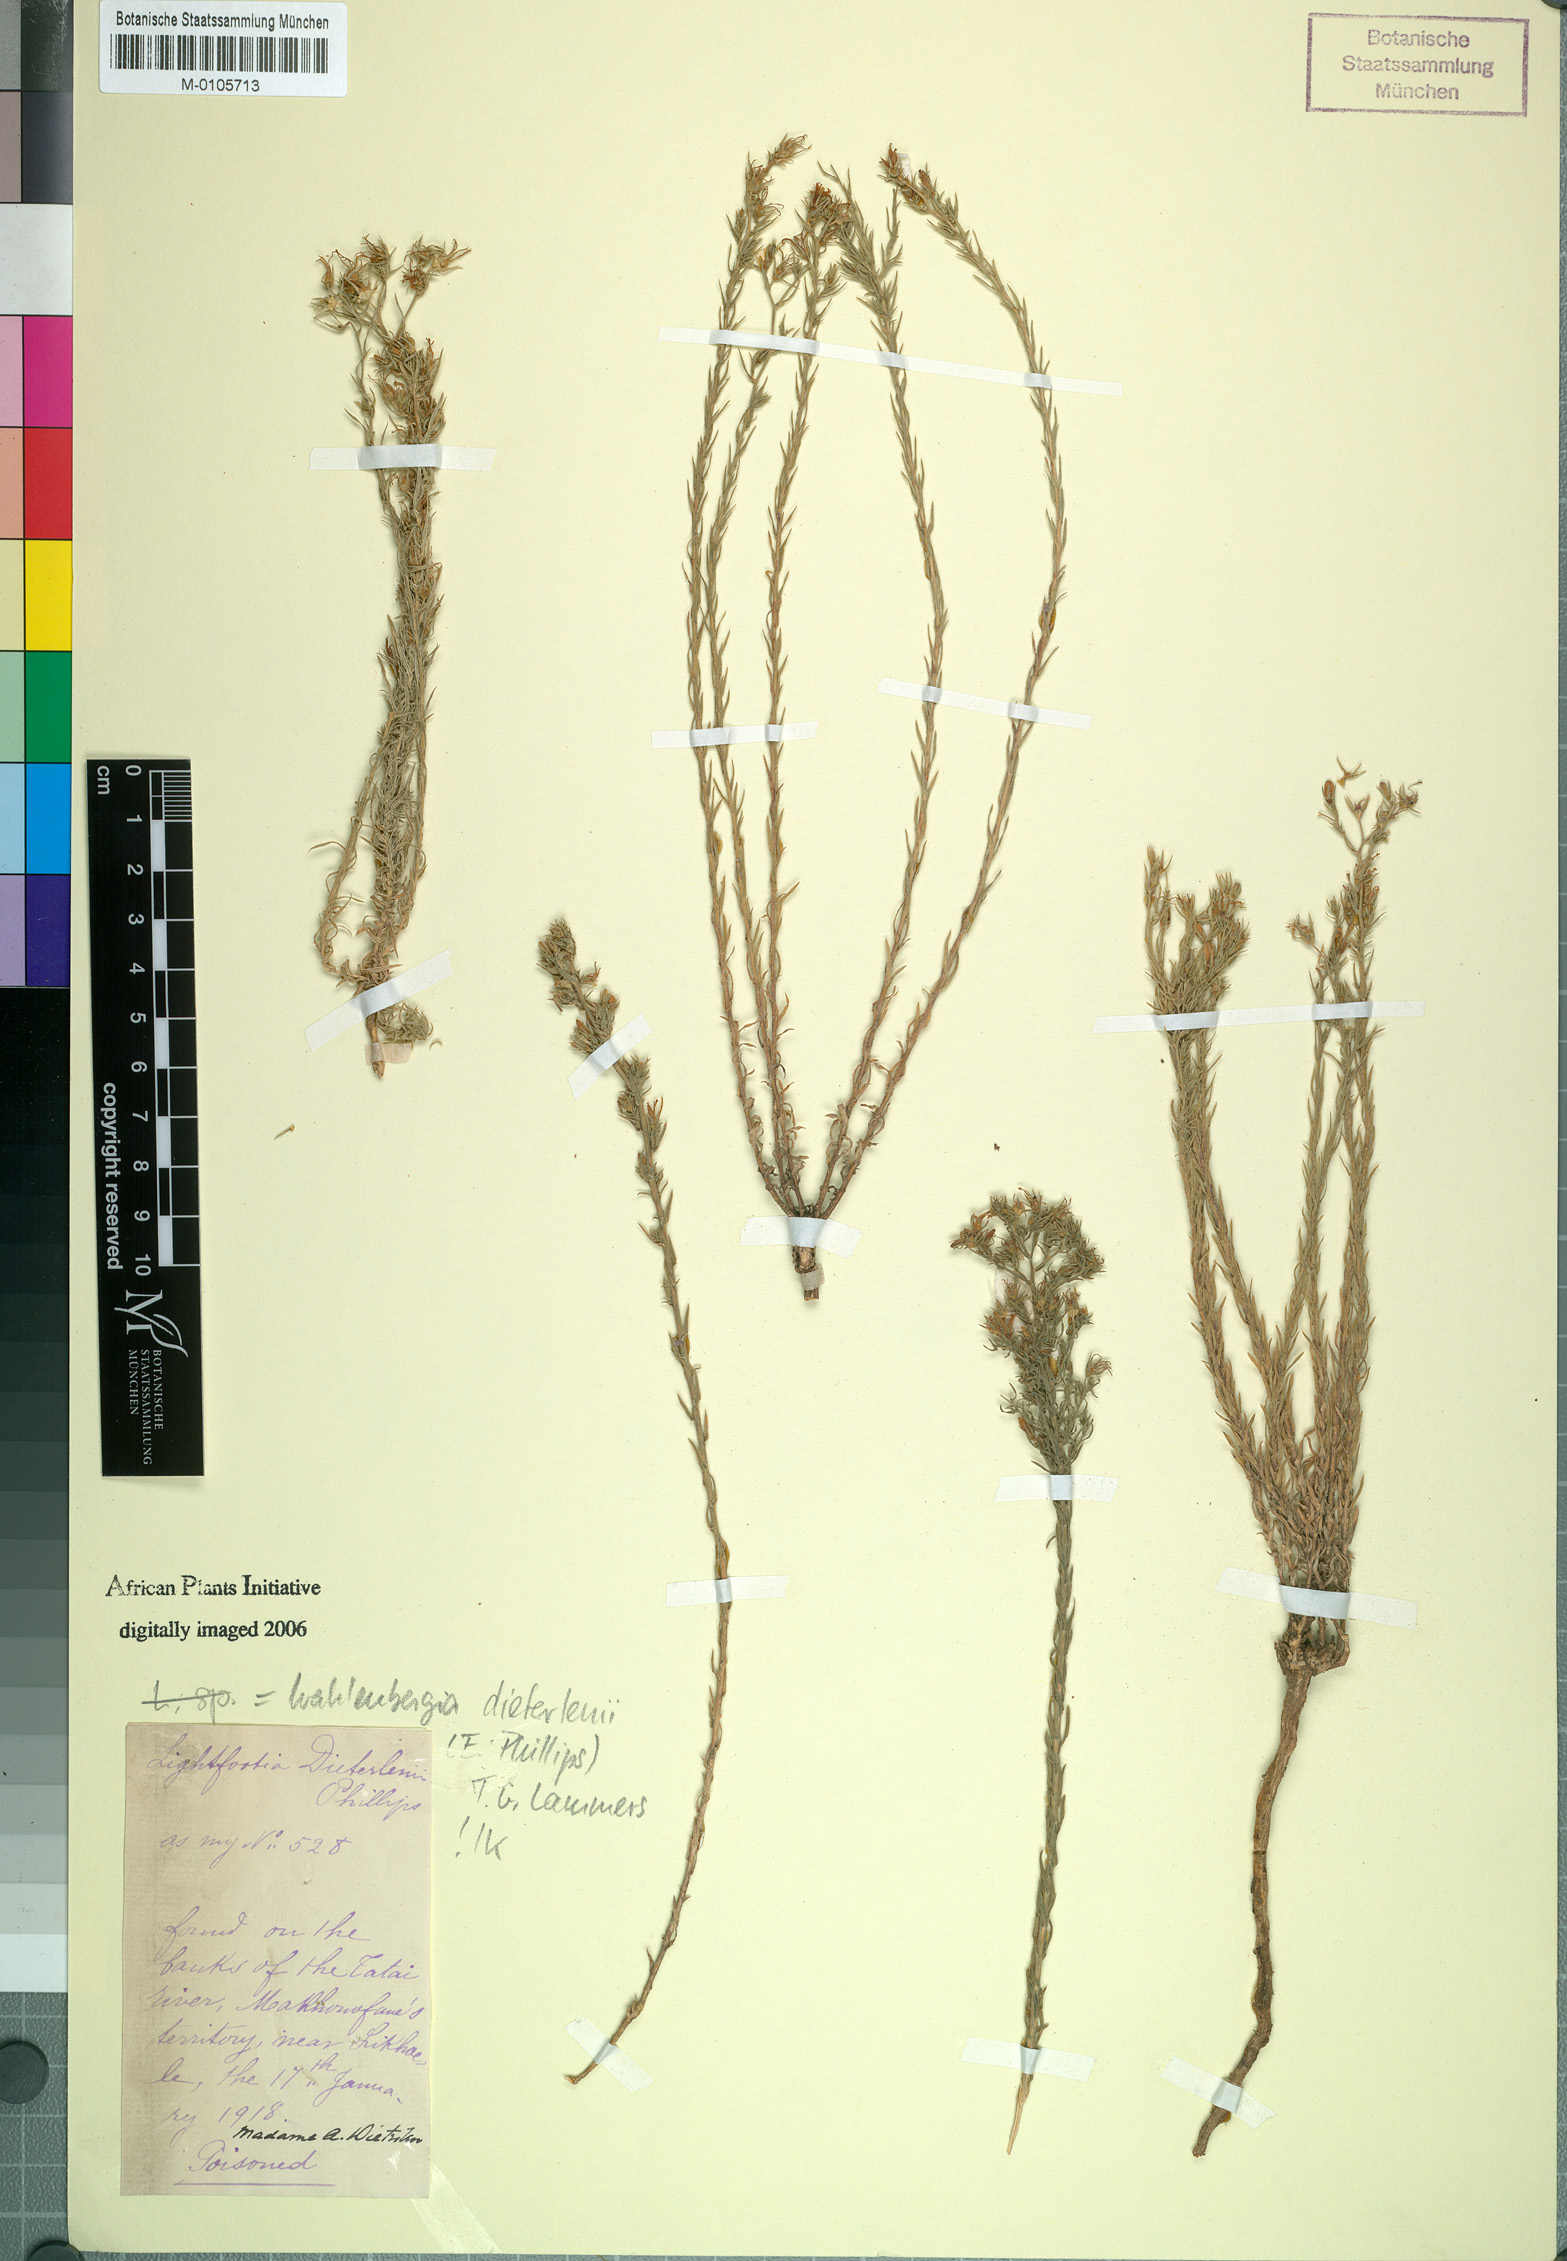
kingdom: Plantae
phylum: Tracheophyta
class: Magnoliopsida
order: Asterales
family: Campanulaceae
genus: Wahlenbergia
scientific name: Wahlenbergia dieterlenii
